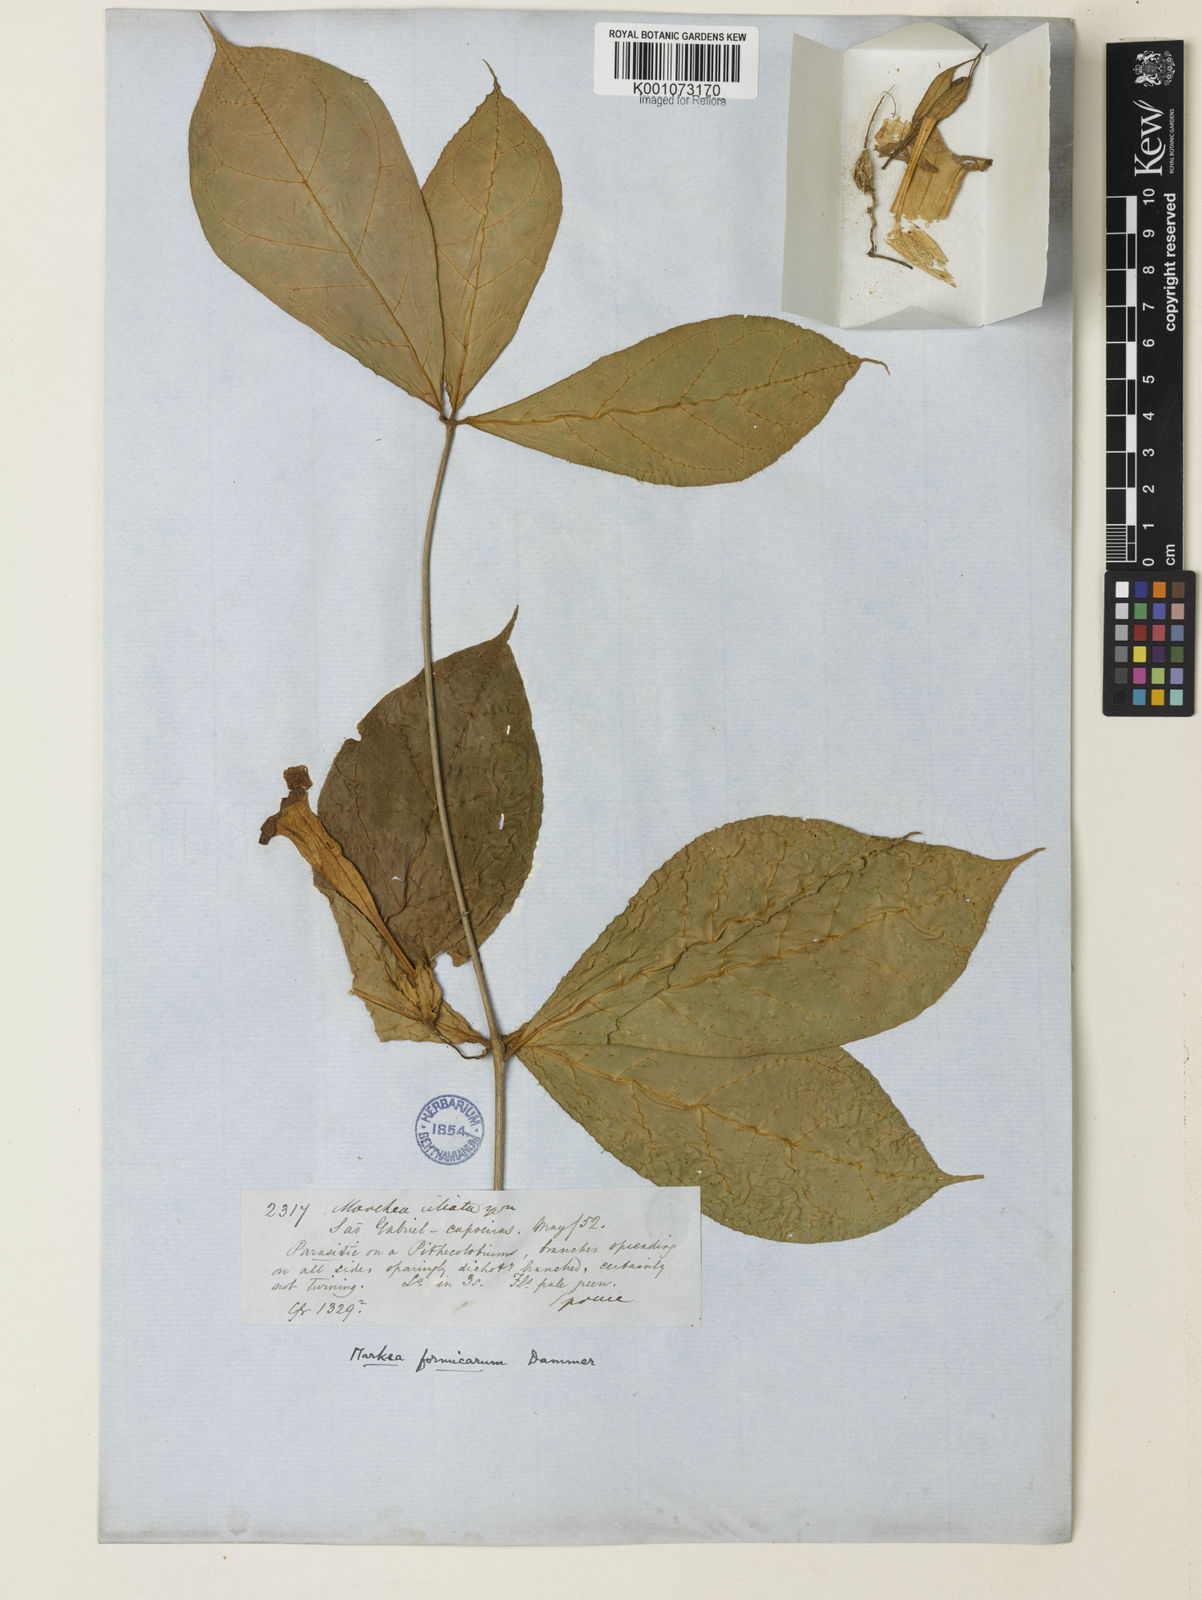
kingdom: Plantae
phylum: Tracheophyta
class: Magnoliopsida
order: Solanales
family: Solanaceae
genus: Markea
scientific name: Markea formicarum
